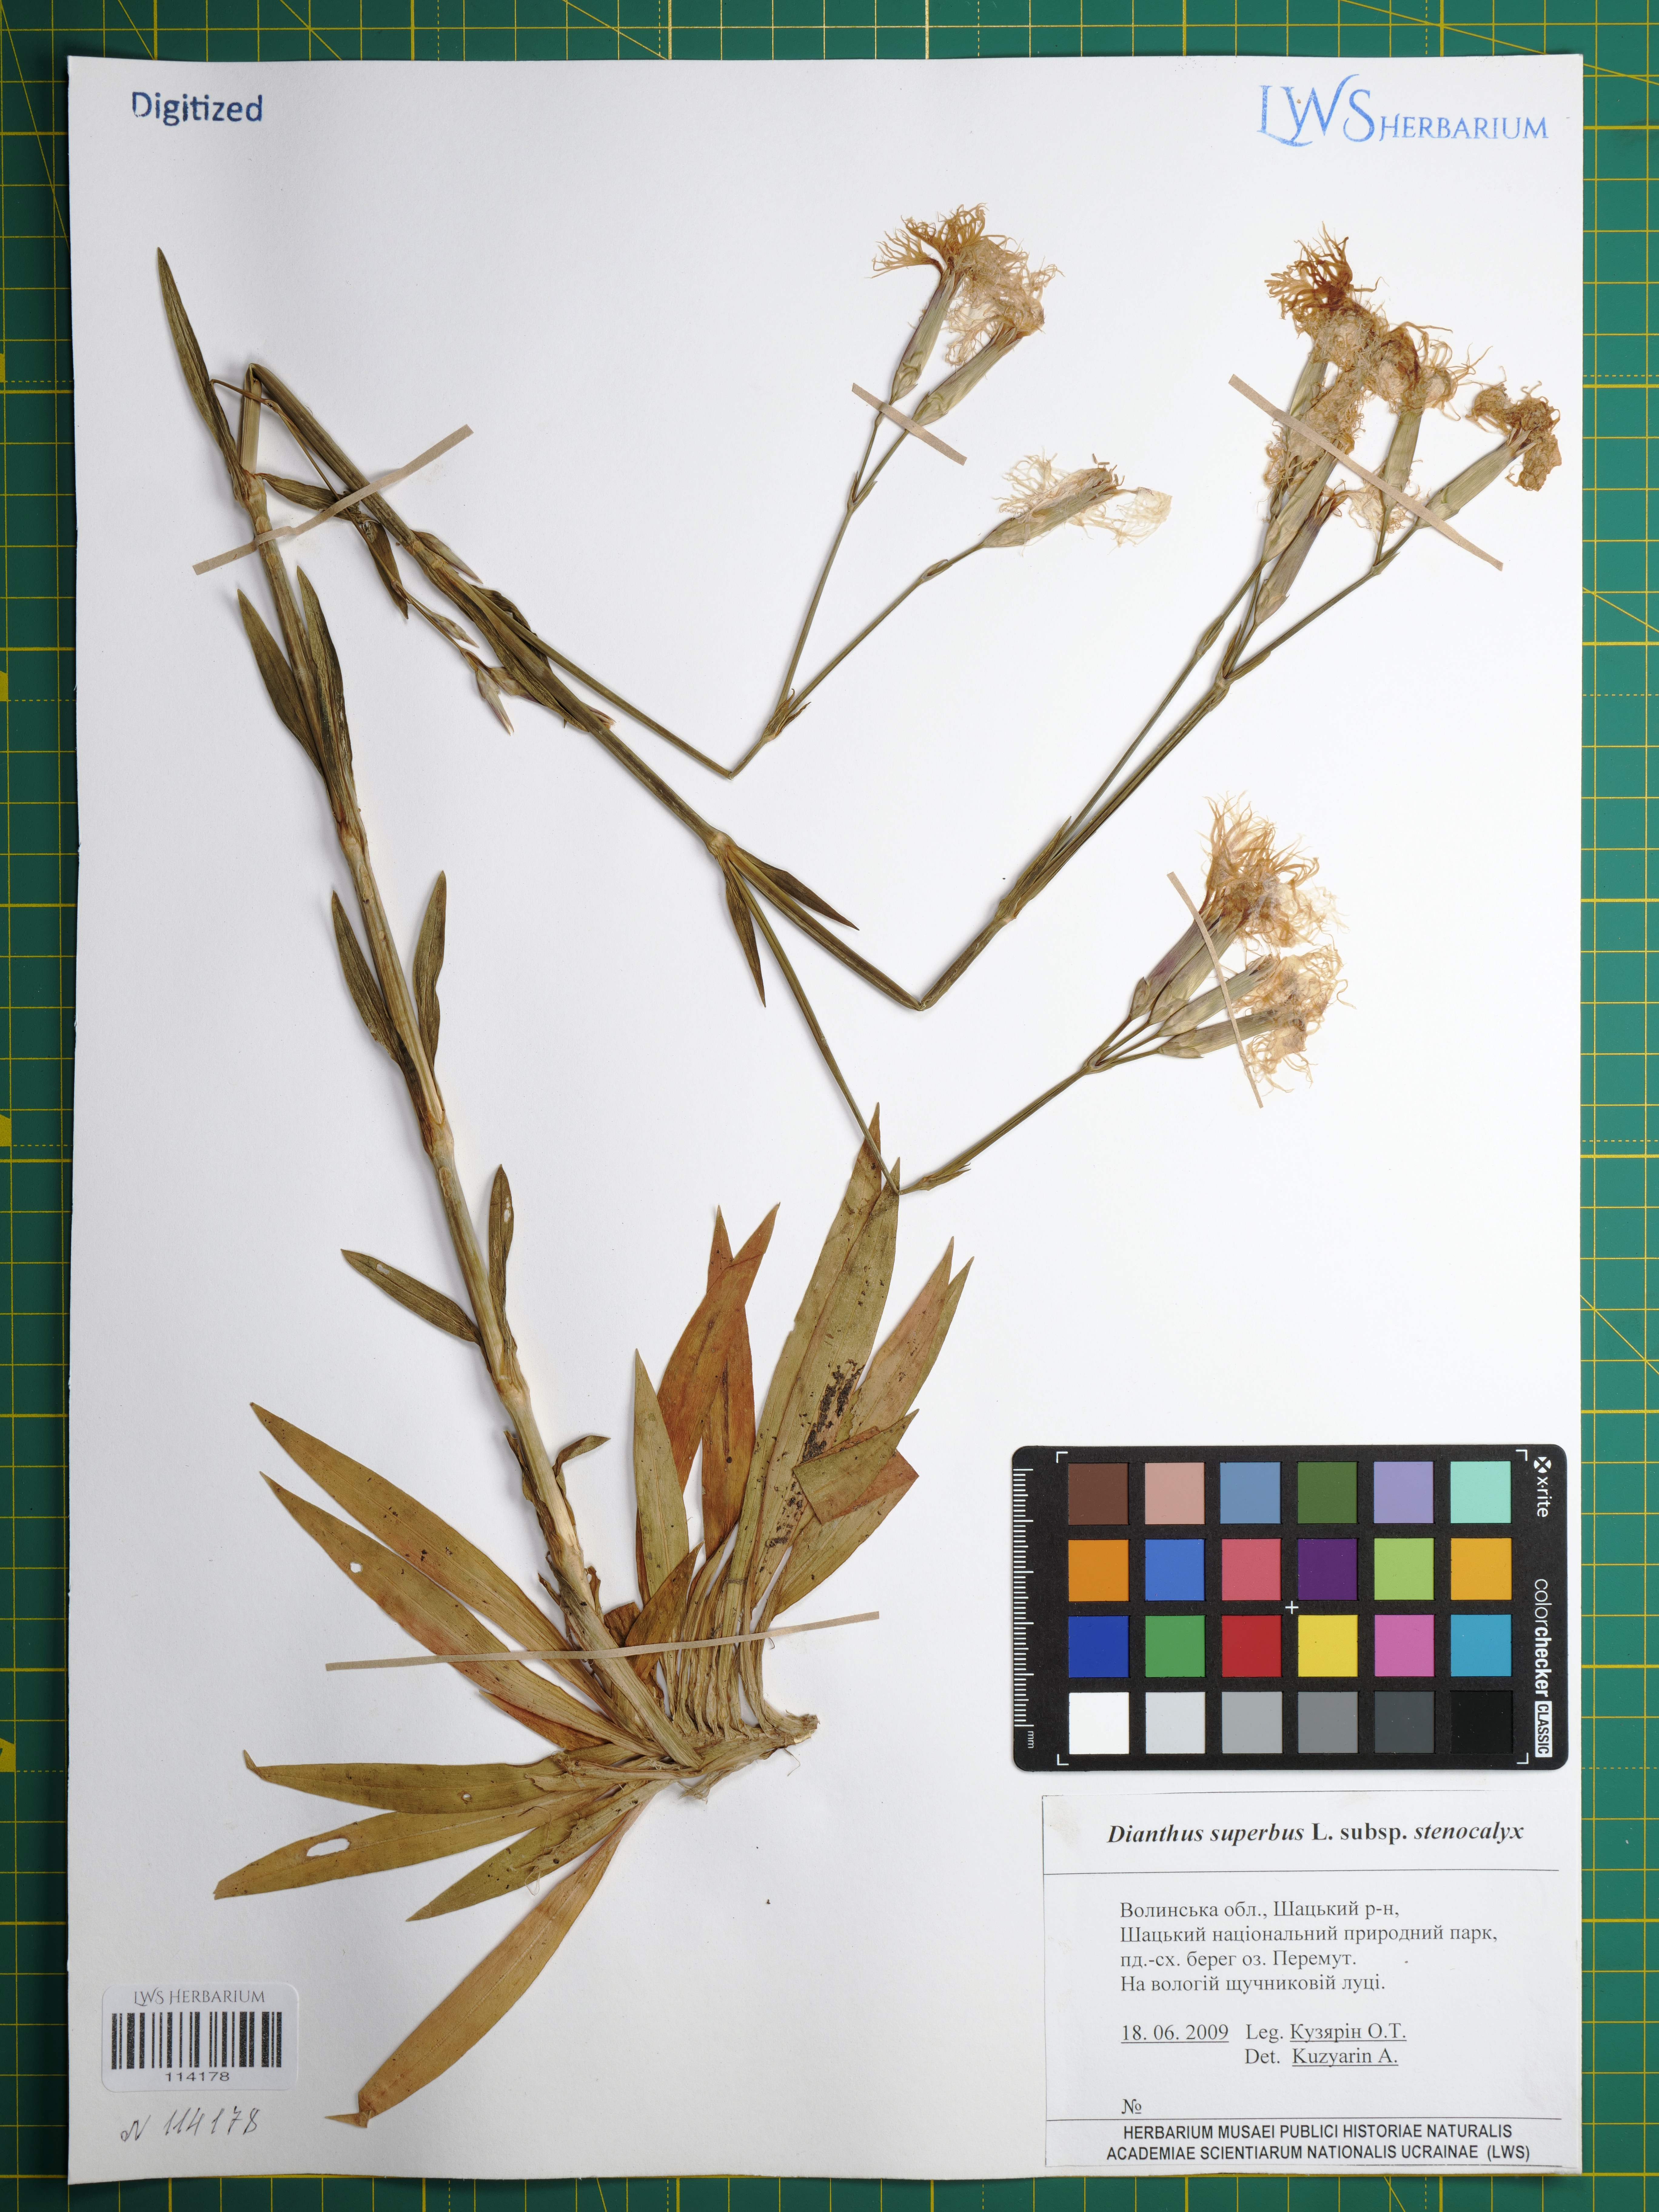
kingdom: Plantae
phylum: Tracheophyta
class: Magnoliopsida
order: Caryophyllales
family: Caryophyllaceae
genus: Dianthus
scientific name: Dianthus superbus
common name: Fringed pink
